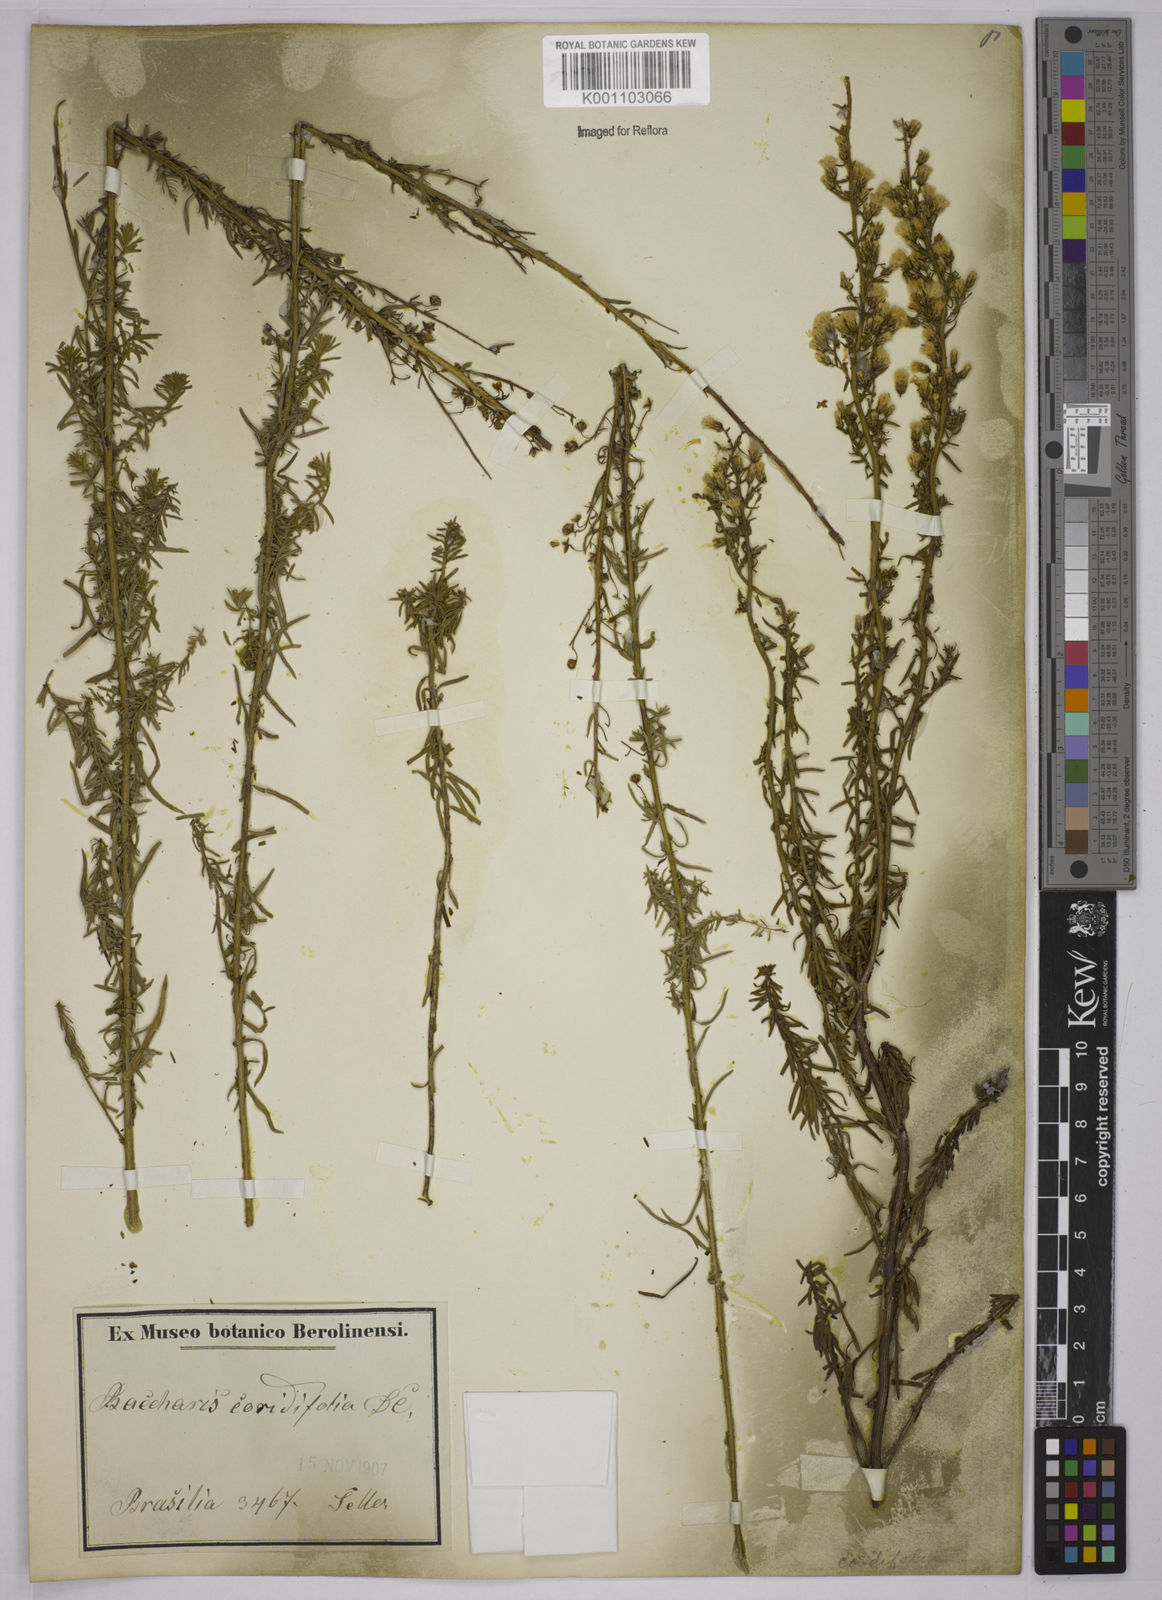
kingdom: Plantae
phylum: Tracheophyta
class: Magnoliopsida
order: Asterales
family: Asteraceae
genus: Baccharis
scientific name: Baccharis coridifolia
